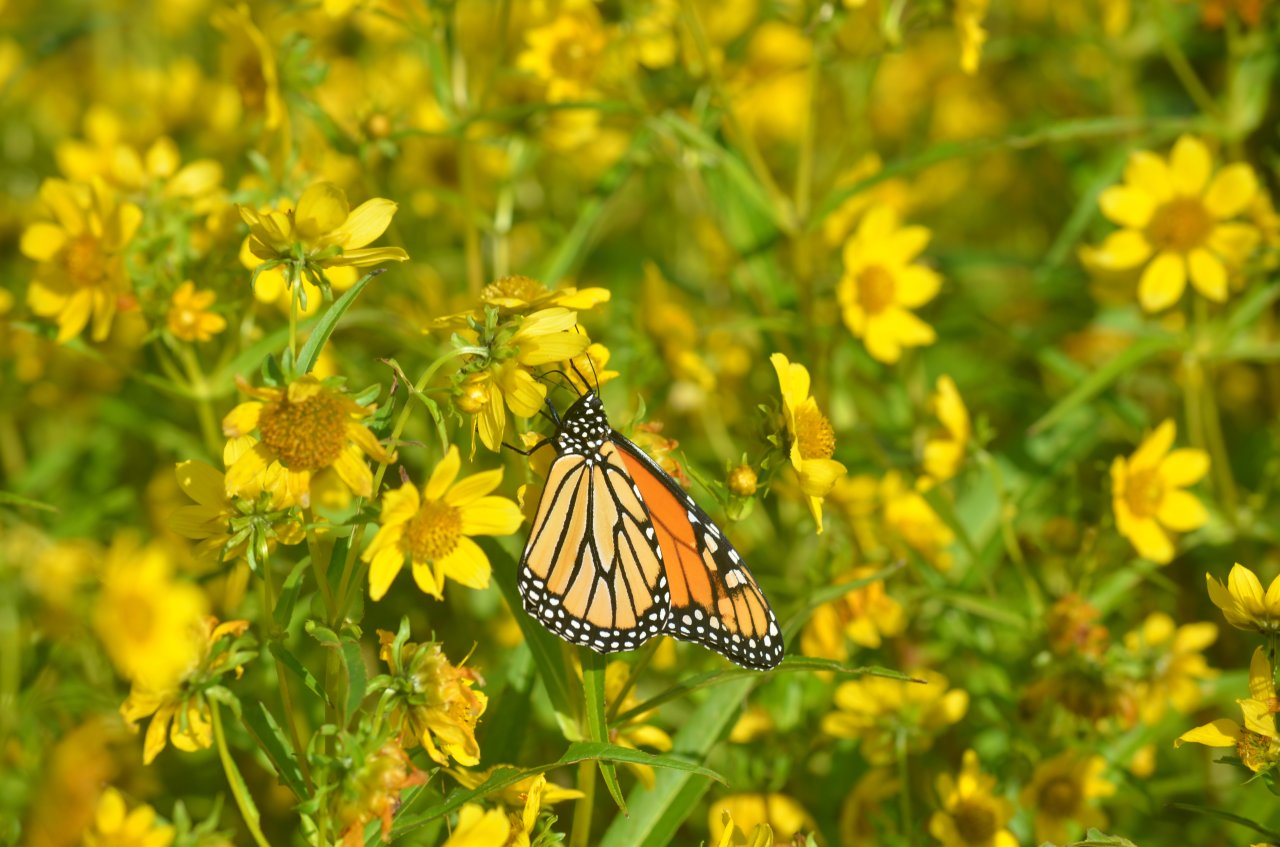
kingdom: Animalia
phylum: Arthropoda
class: Insecta
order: Lepidoptera
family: Nymphalidae
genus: Danaus
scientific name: Danaus plexippus
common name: Monarch
